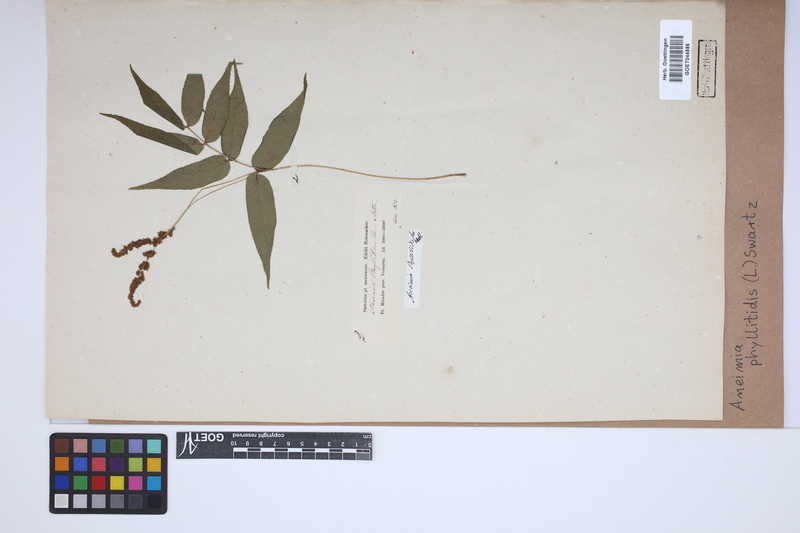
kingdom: Plantae
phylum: Tracheophyta
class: Polypodiopsida
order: Schizaeales
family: Anemiaceae
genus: Anemia
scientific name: Anemia phyllitidis
